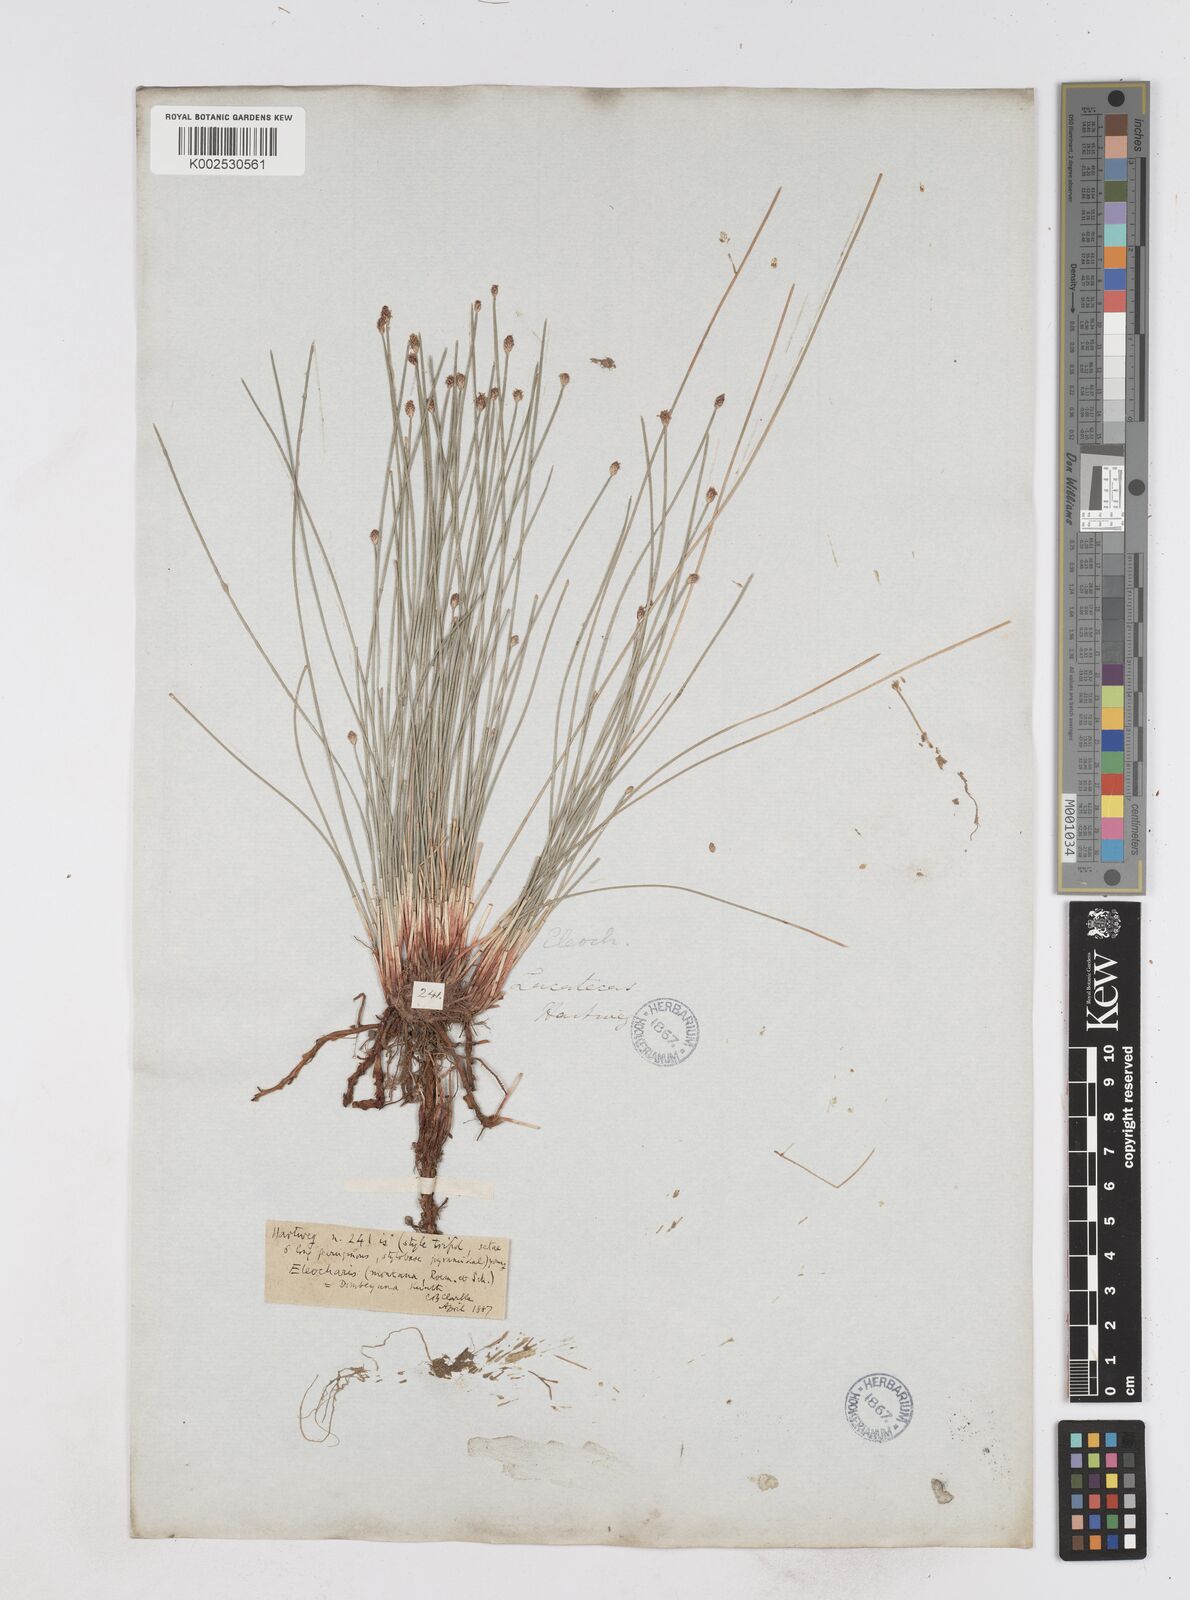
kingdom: Plantae
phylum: Tracheophyta
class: Liliopsida
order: Poales
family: Cyperaceae
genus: Eleocharis
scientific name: Eleocharis montana
